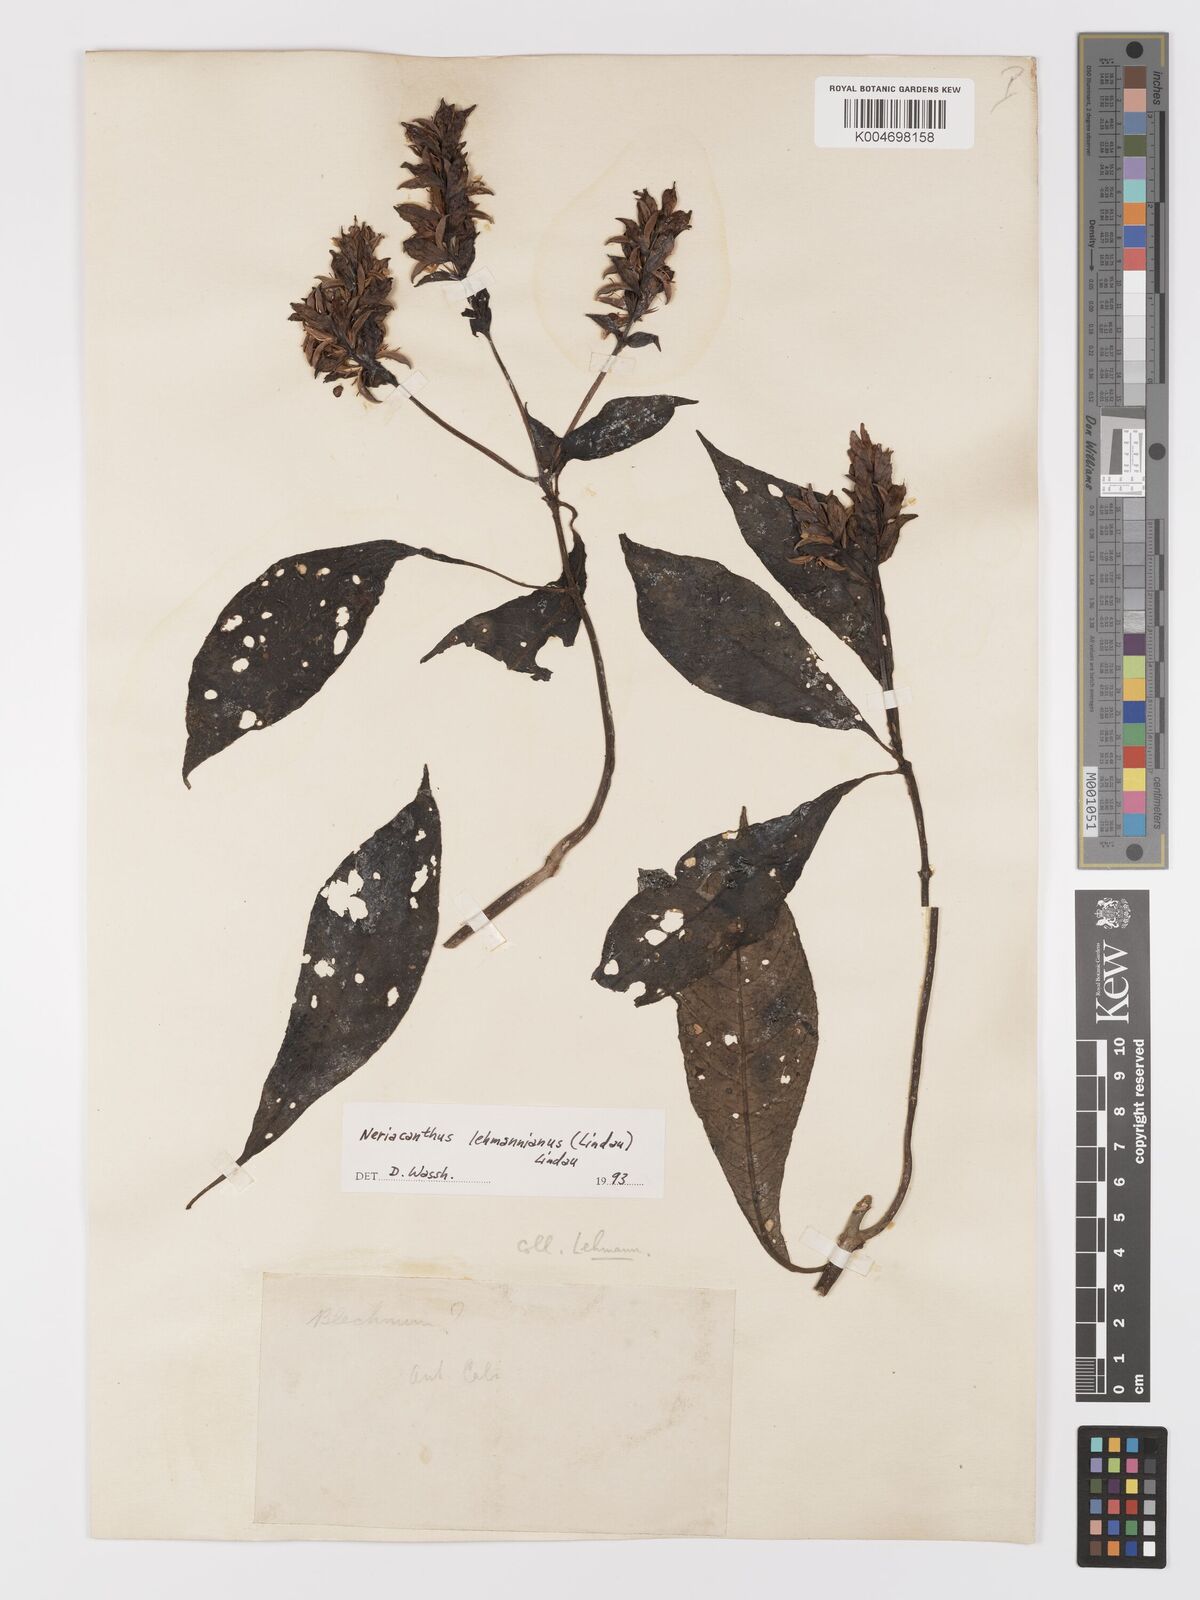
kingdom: Plantae
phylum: Tracheophyta
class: Magnoliopsida
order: Lamiales
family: Acanthaceae
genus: Neriacanthus
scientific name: Neriacanthus lehmannianus
